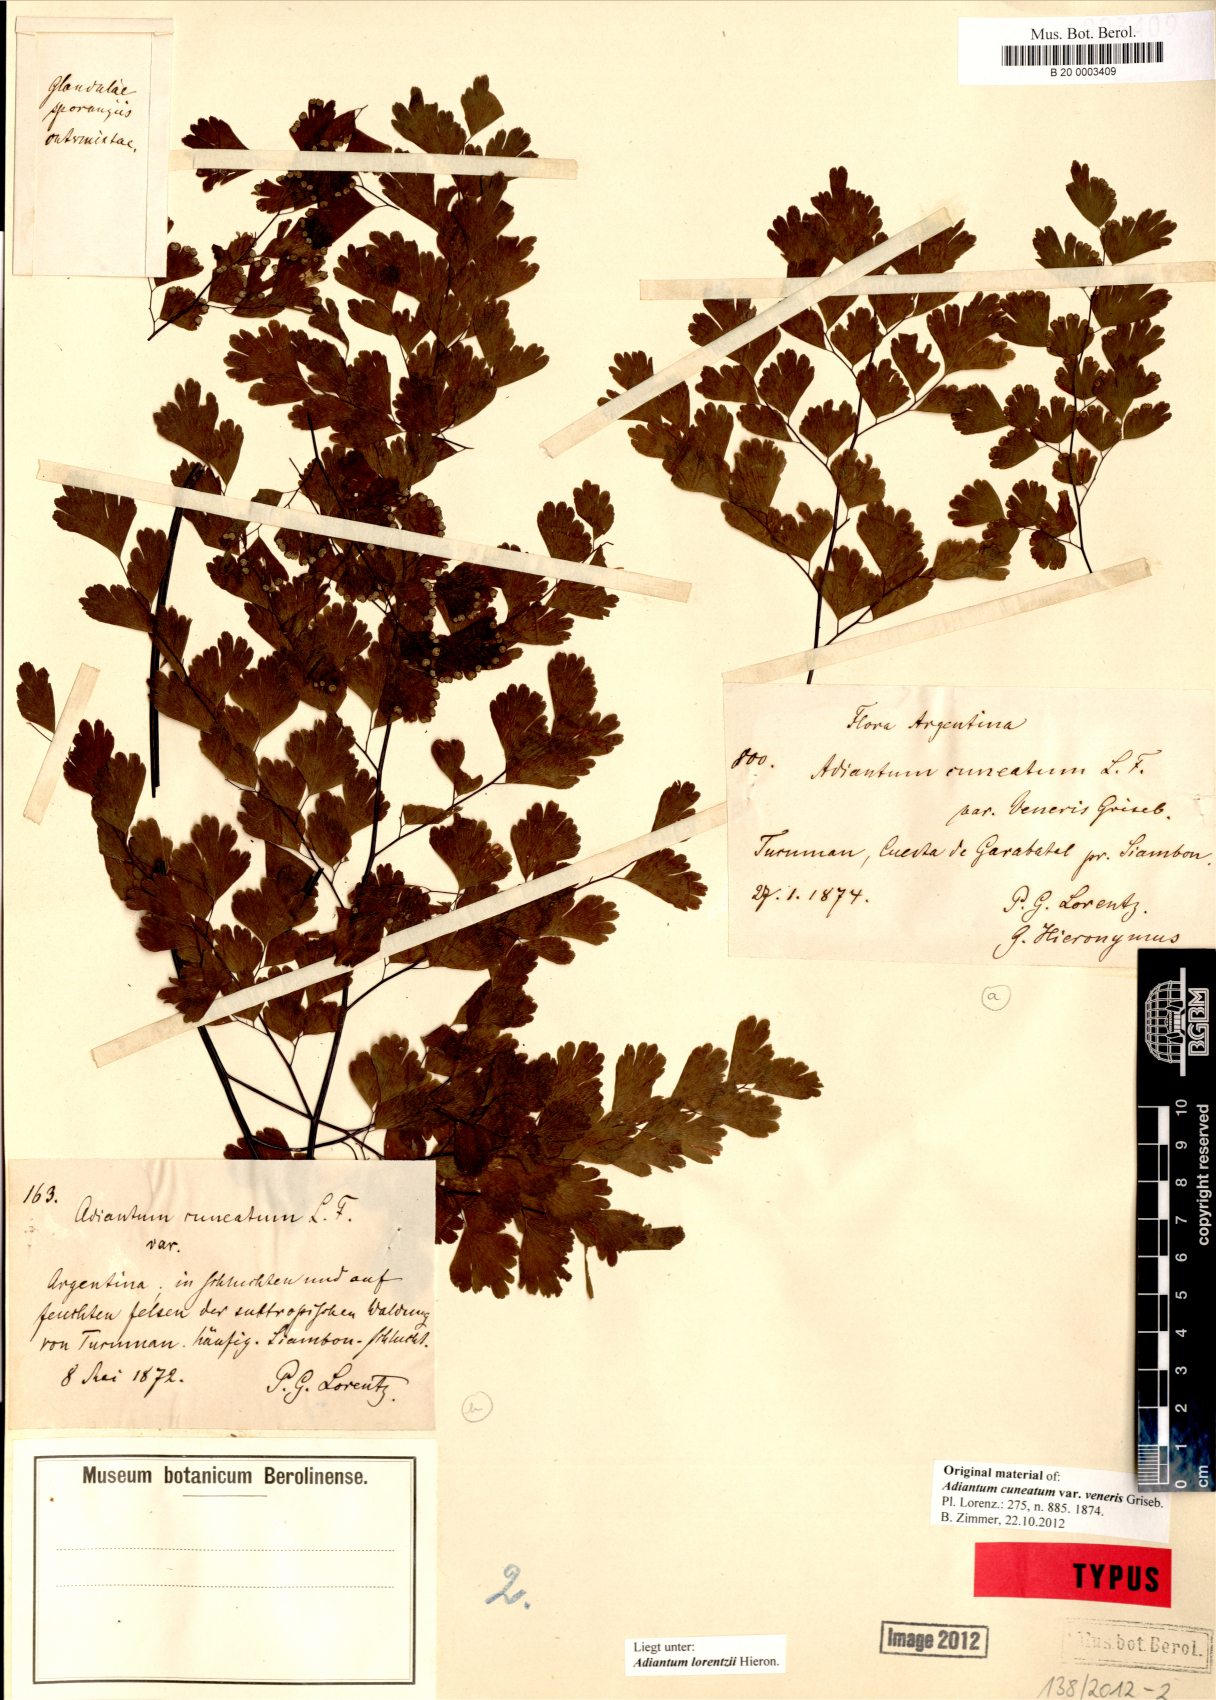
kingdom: Plantae
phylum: Tracheophyta
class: Polypodiopsida
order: Polypodiales
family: Pteridaceae
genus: Adiantum
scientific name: Adiantum lorentzii
